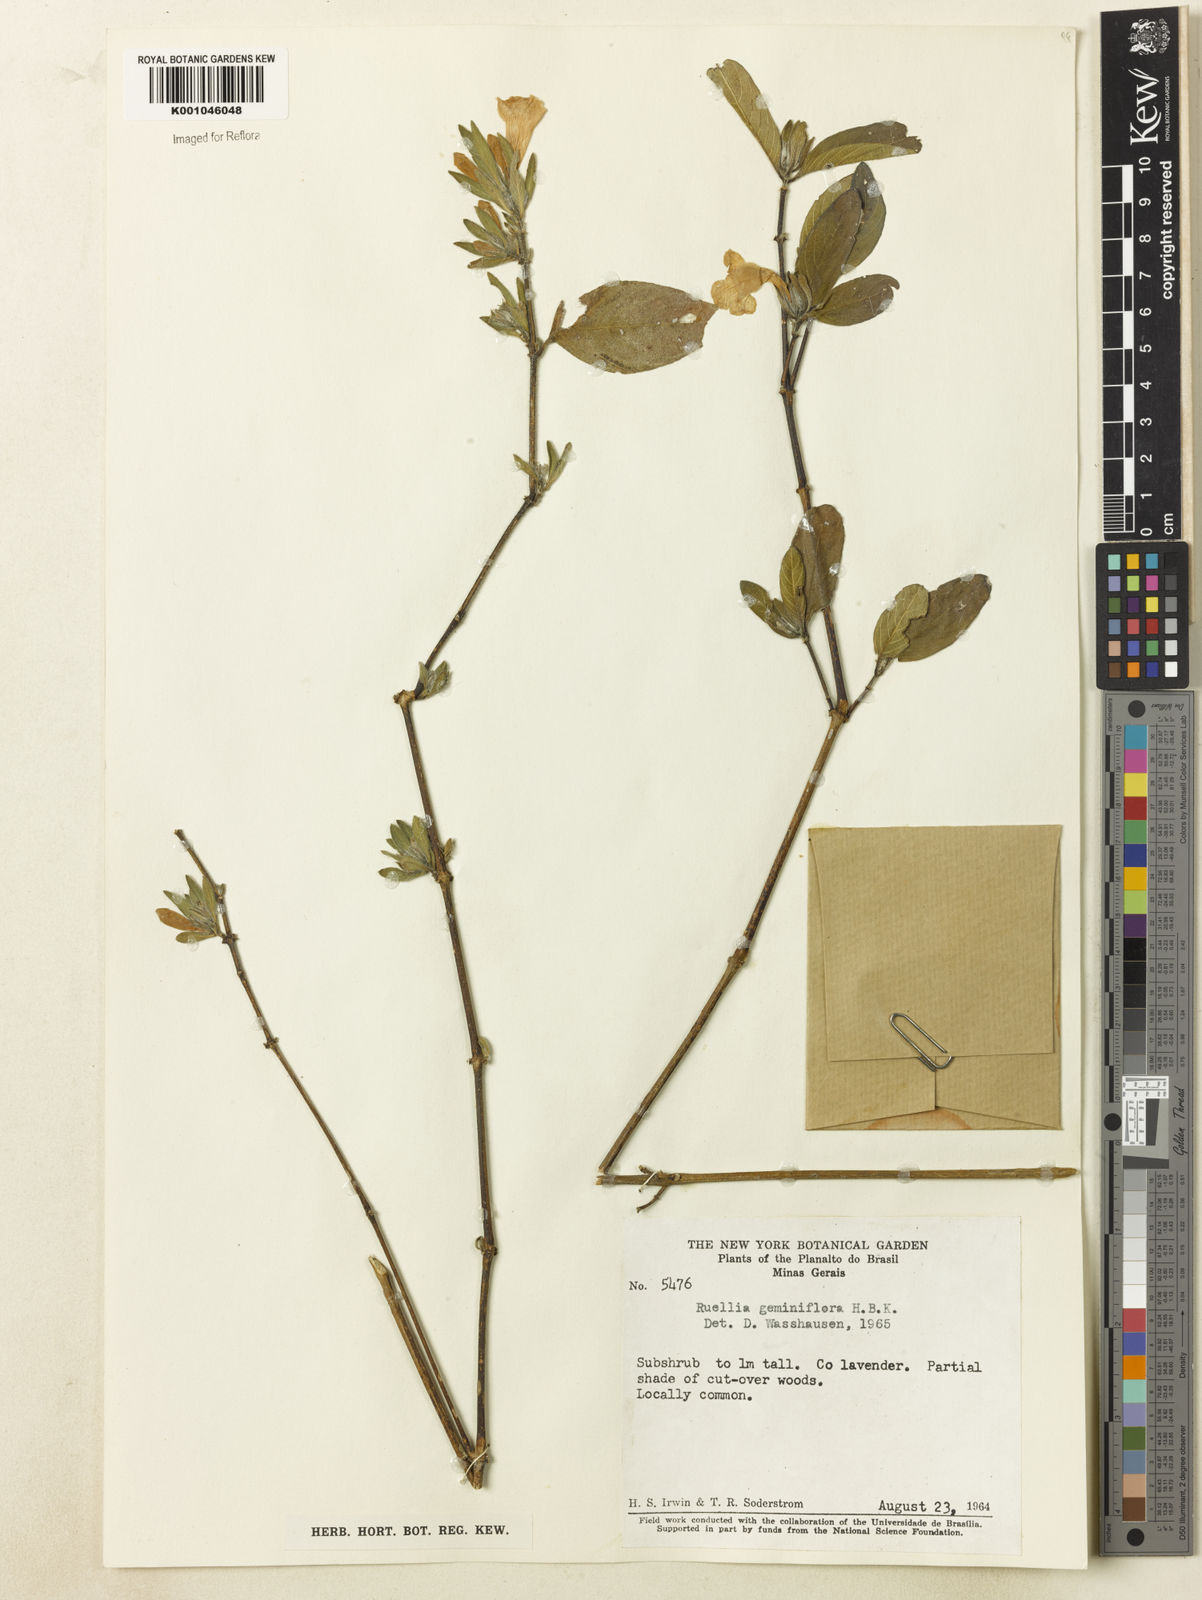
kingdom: Plantae
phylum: Tracheophyta
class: Magnoliopsida
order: Lamiales
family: Acanthaceae
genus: Ruellia
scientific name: Ruellia geminiflora
